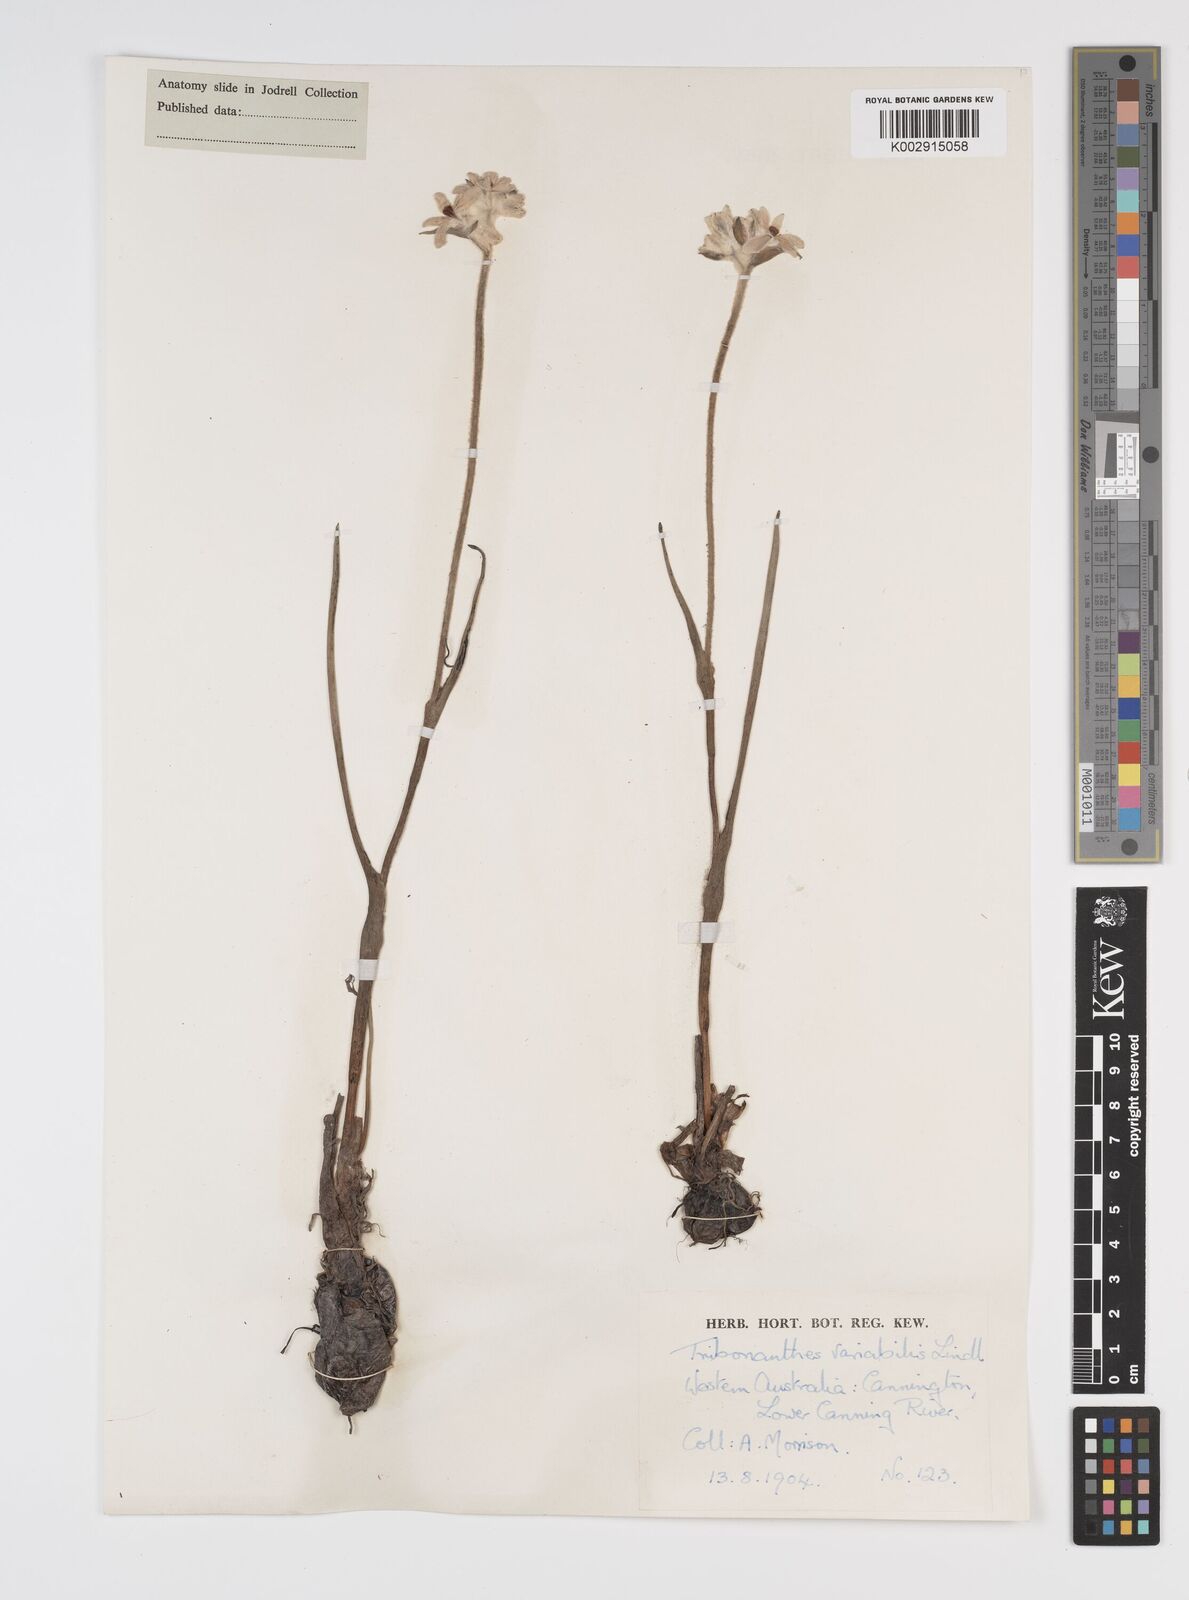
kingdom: Plantae
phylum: Tracheophyta
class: Liliopsida
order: Commelinales
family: Haemodoraceae
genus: Tribonanthes
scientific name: Tribonanthes australis
